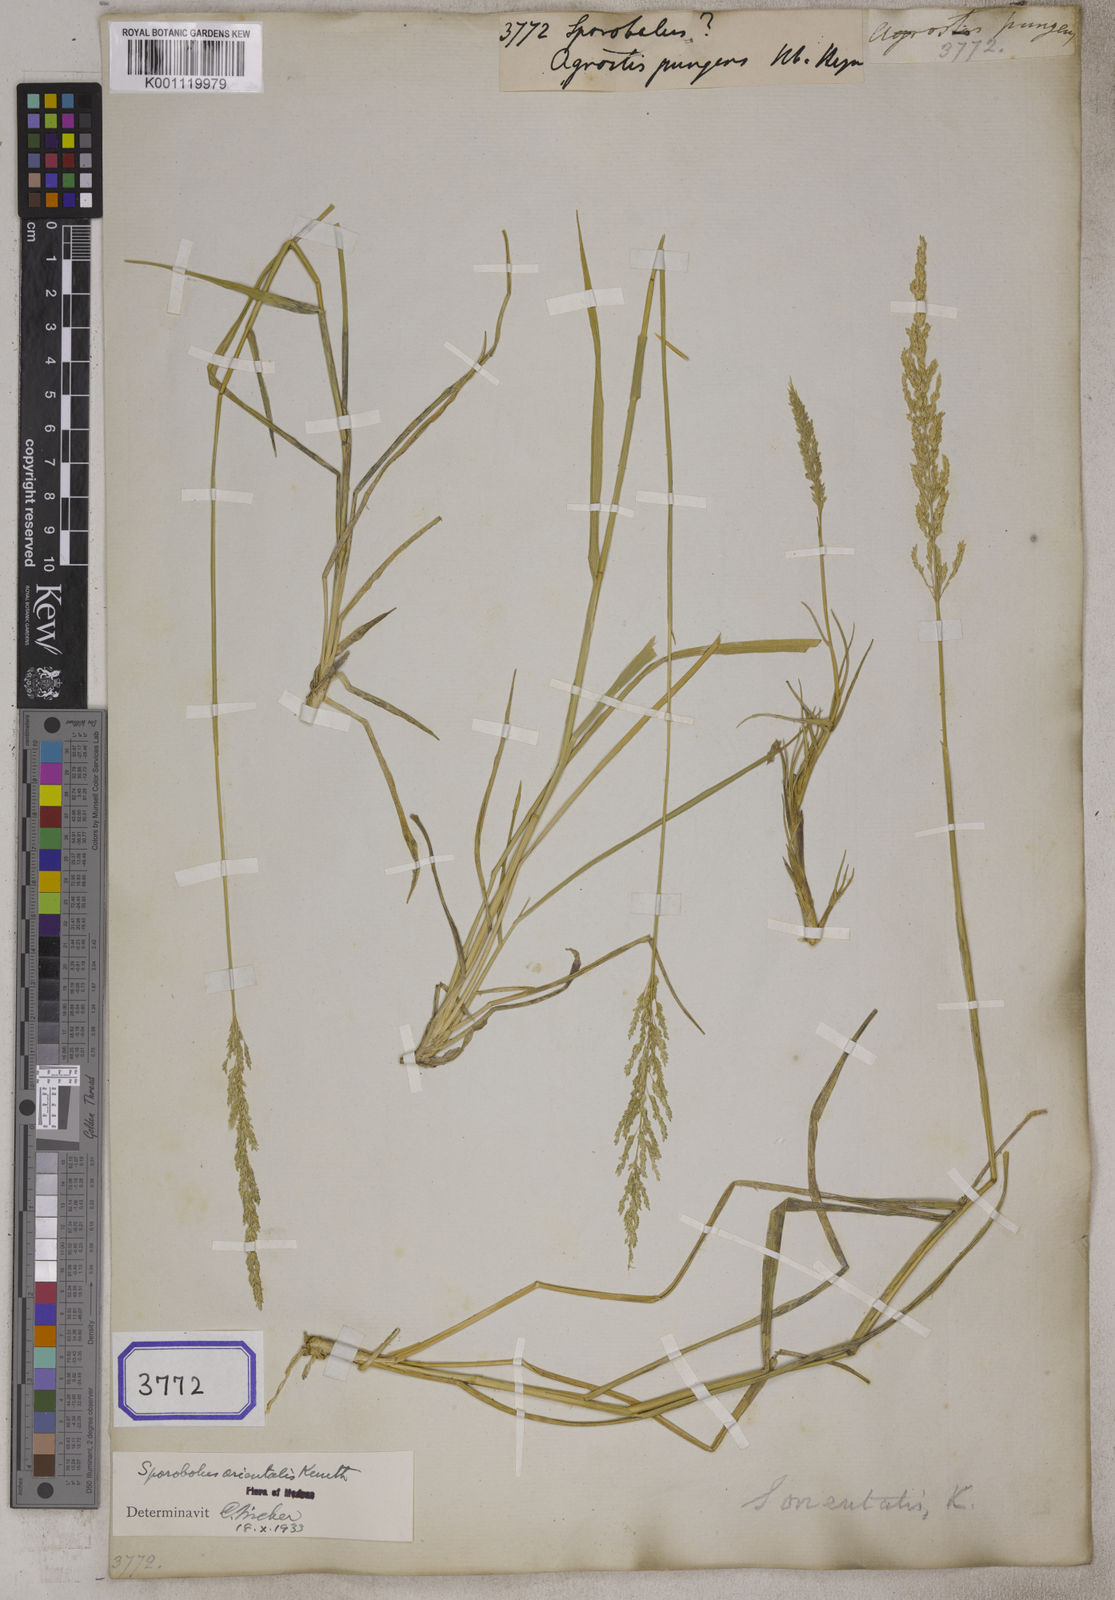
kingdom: Plantae
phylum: Tracheophyta
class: Liliopsida
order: Poales
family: Poaceae
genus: Sporobolus
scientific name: Sporobolus
